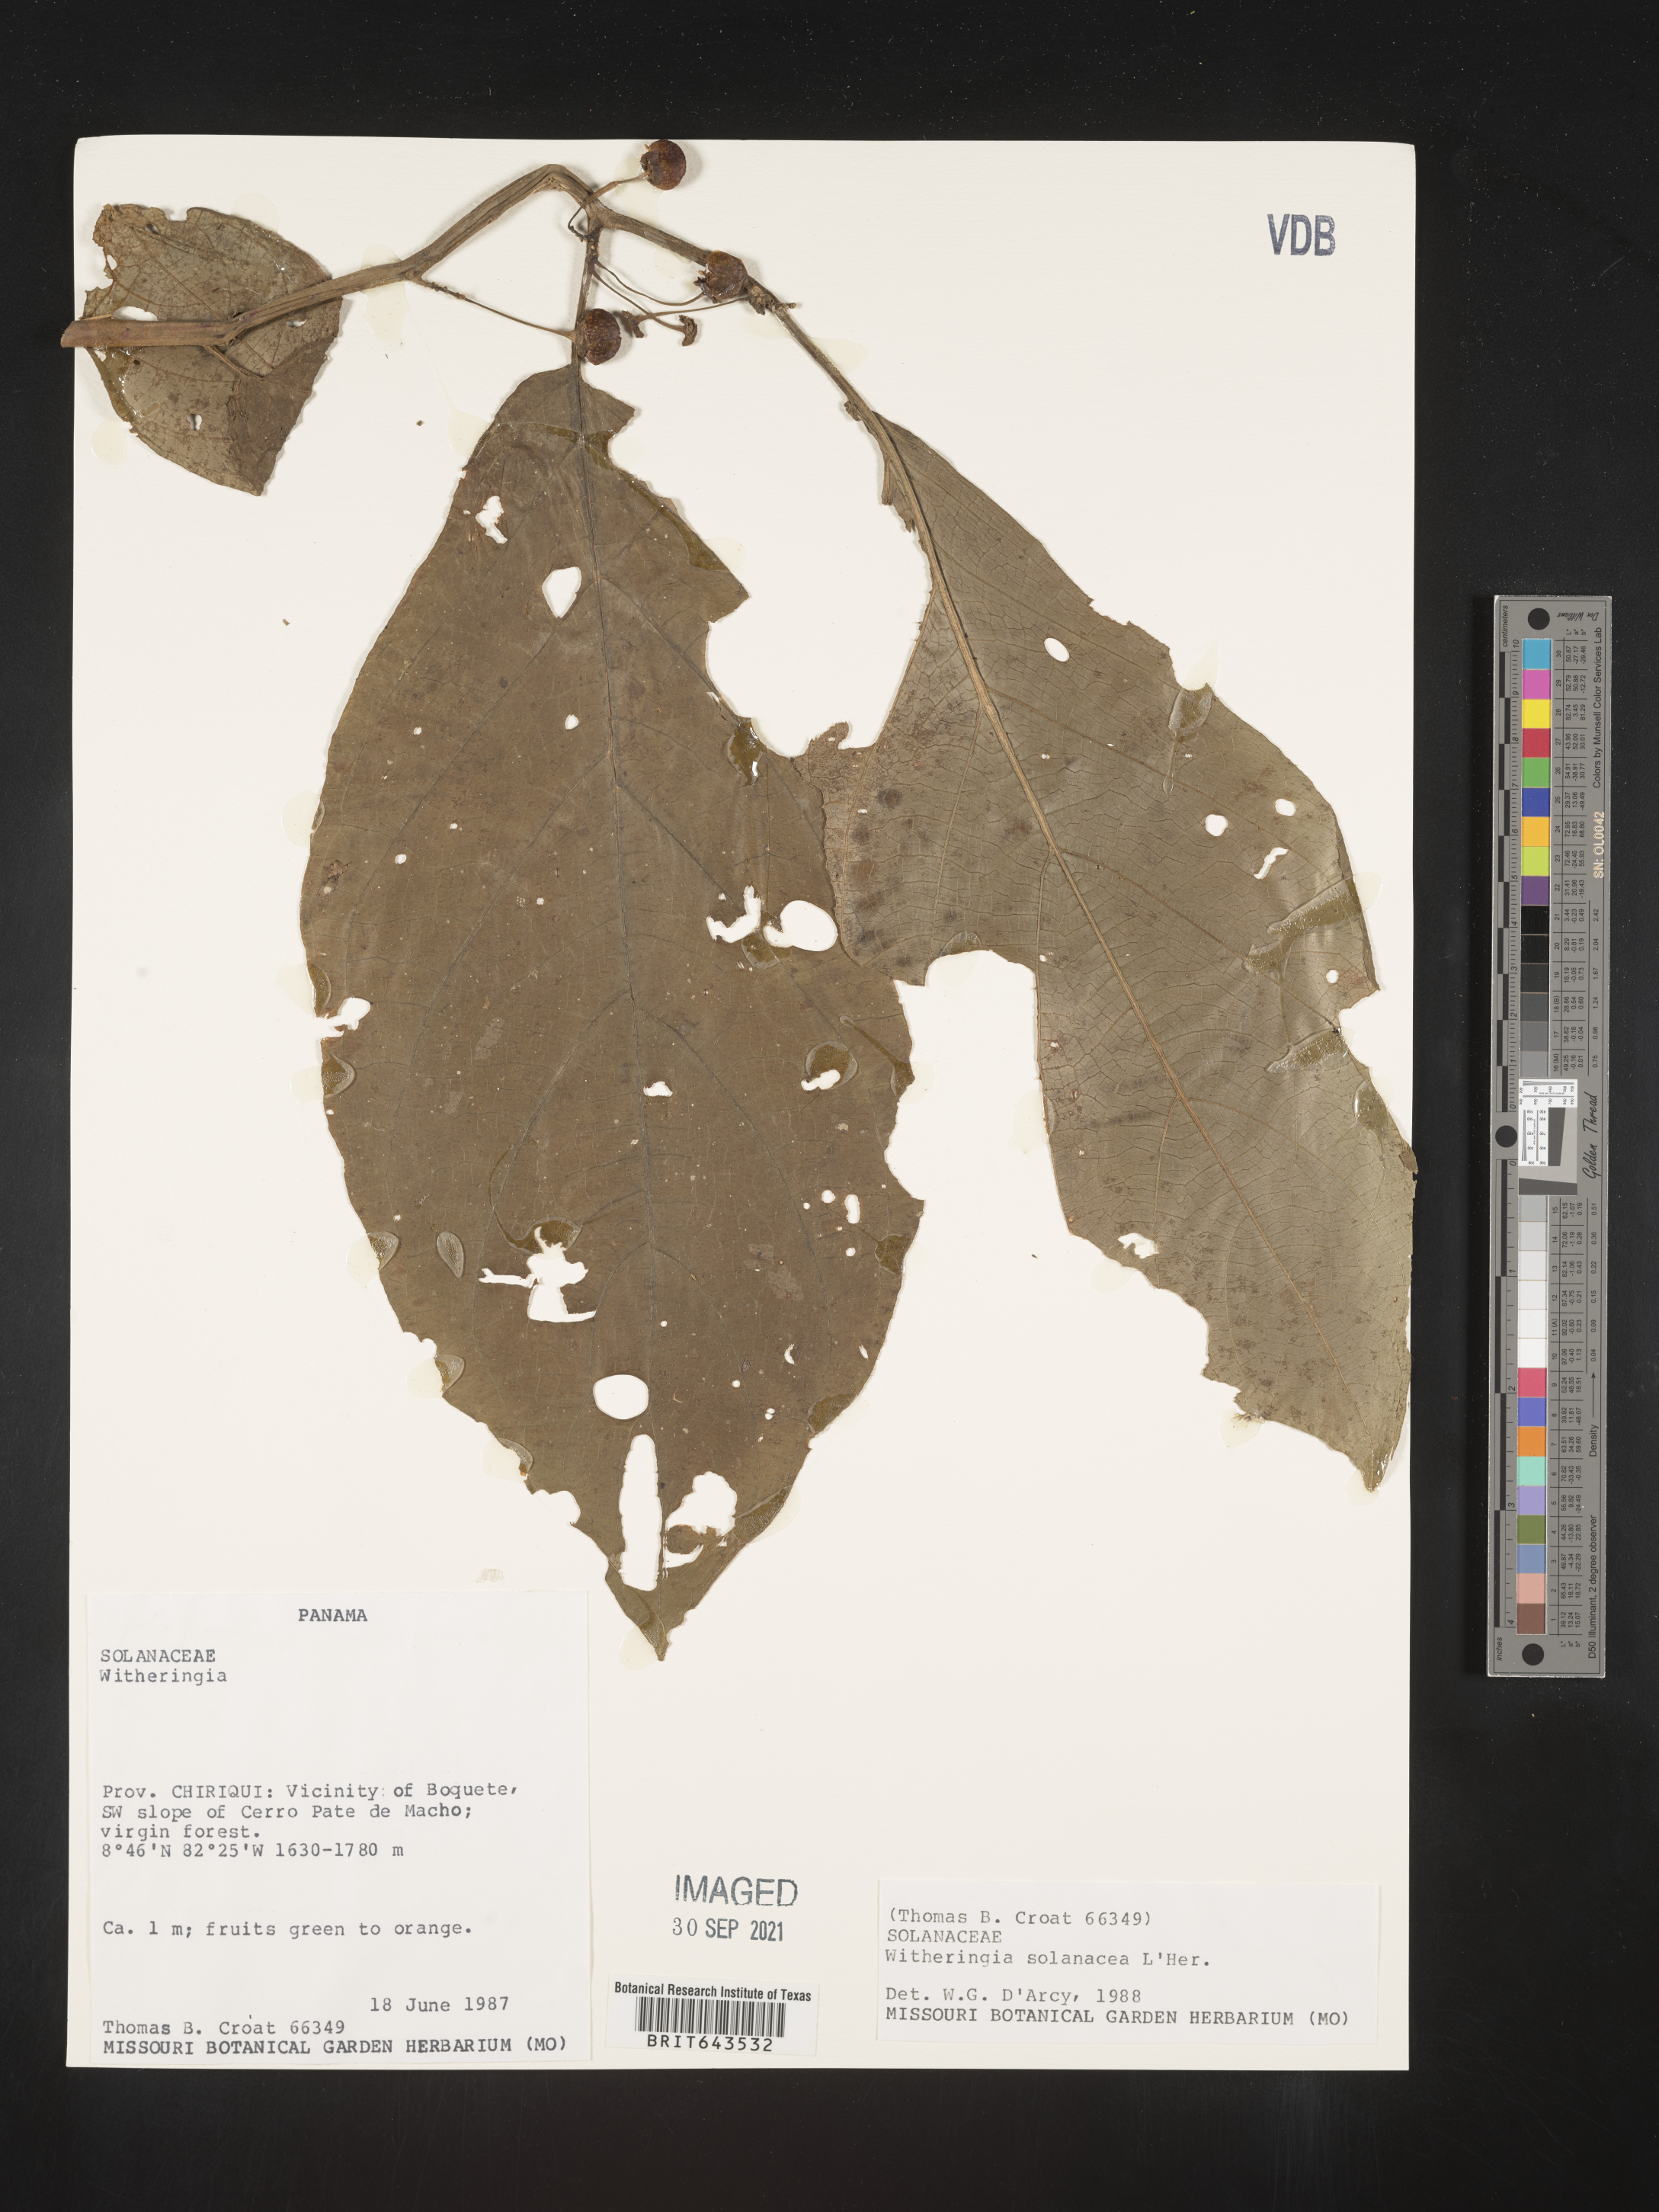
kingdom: Plantae
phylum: Tracheophyta
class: Magnoliopsida
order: Solanales
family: Solanaceae
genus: Witheringia
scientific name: Witheringia
